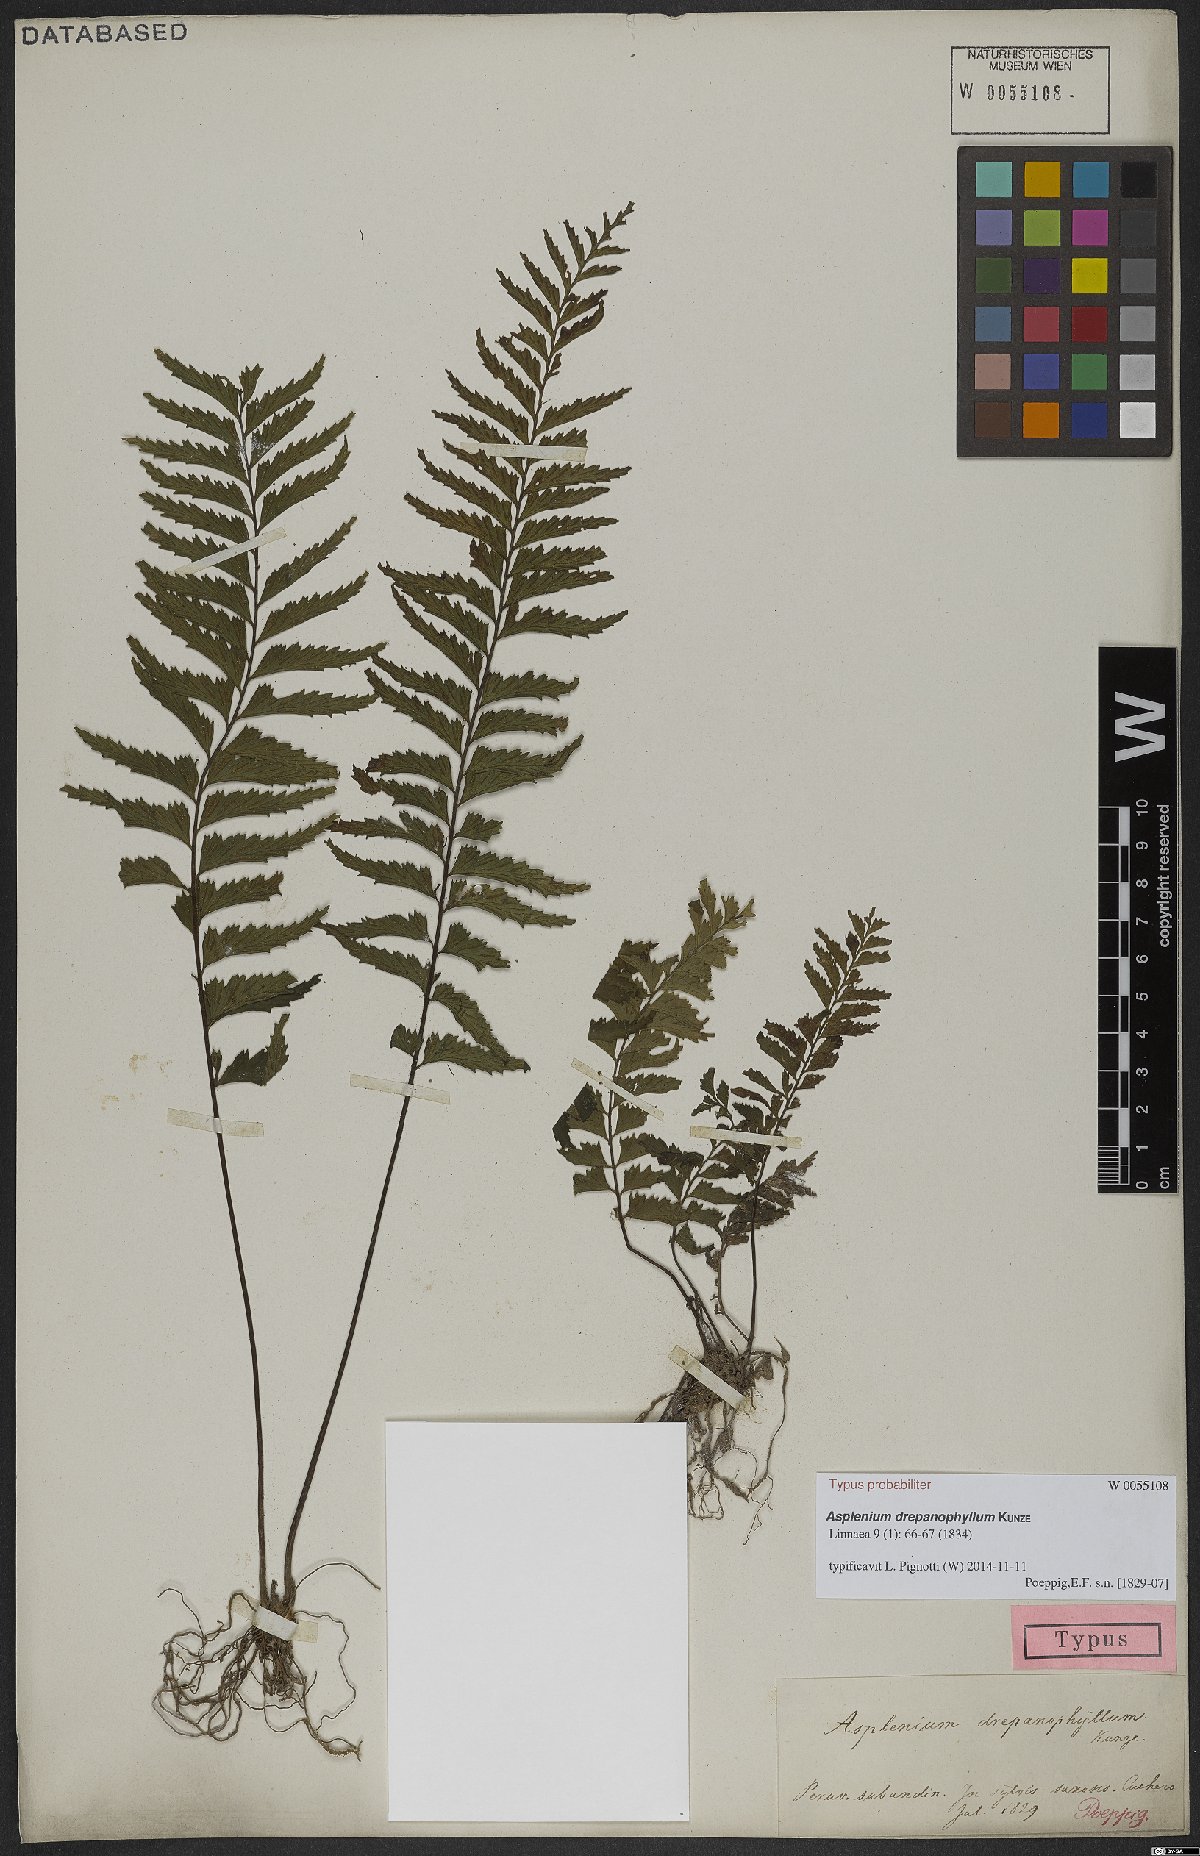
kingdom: Plantae
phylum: Tracheophyta
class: Polypodiopsida
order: Polypodiales
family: Aspleniaceae
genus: Asplenium
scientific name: Asplenium drepanophyllum
